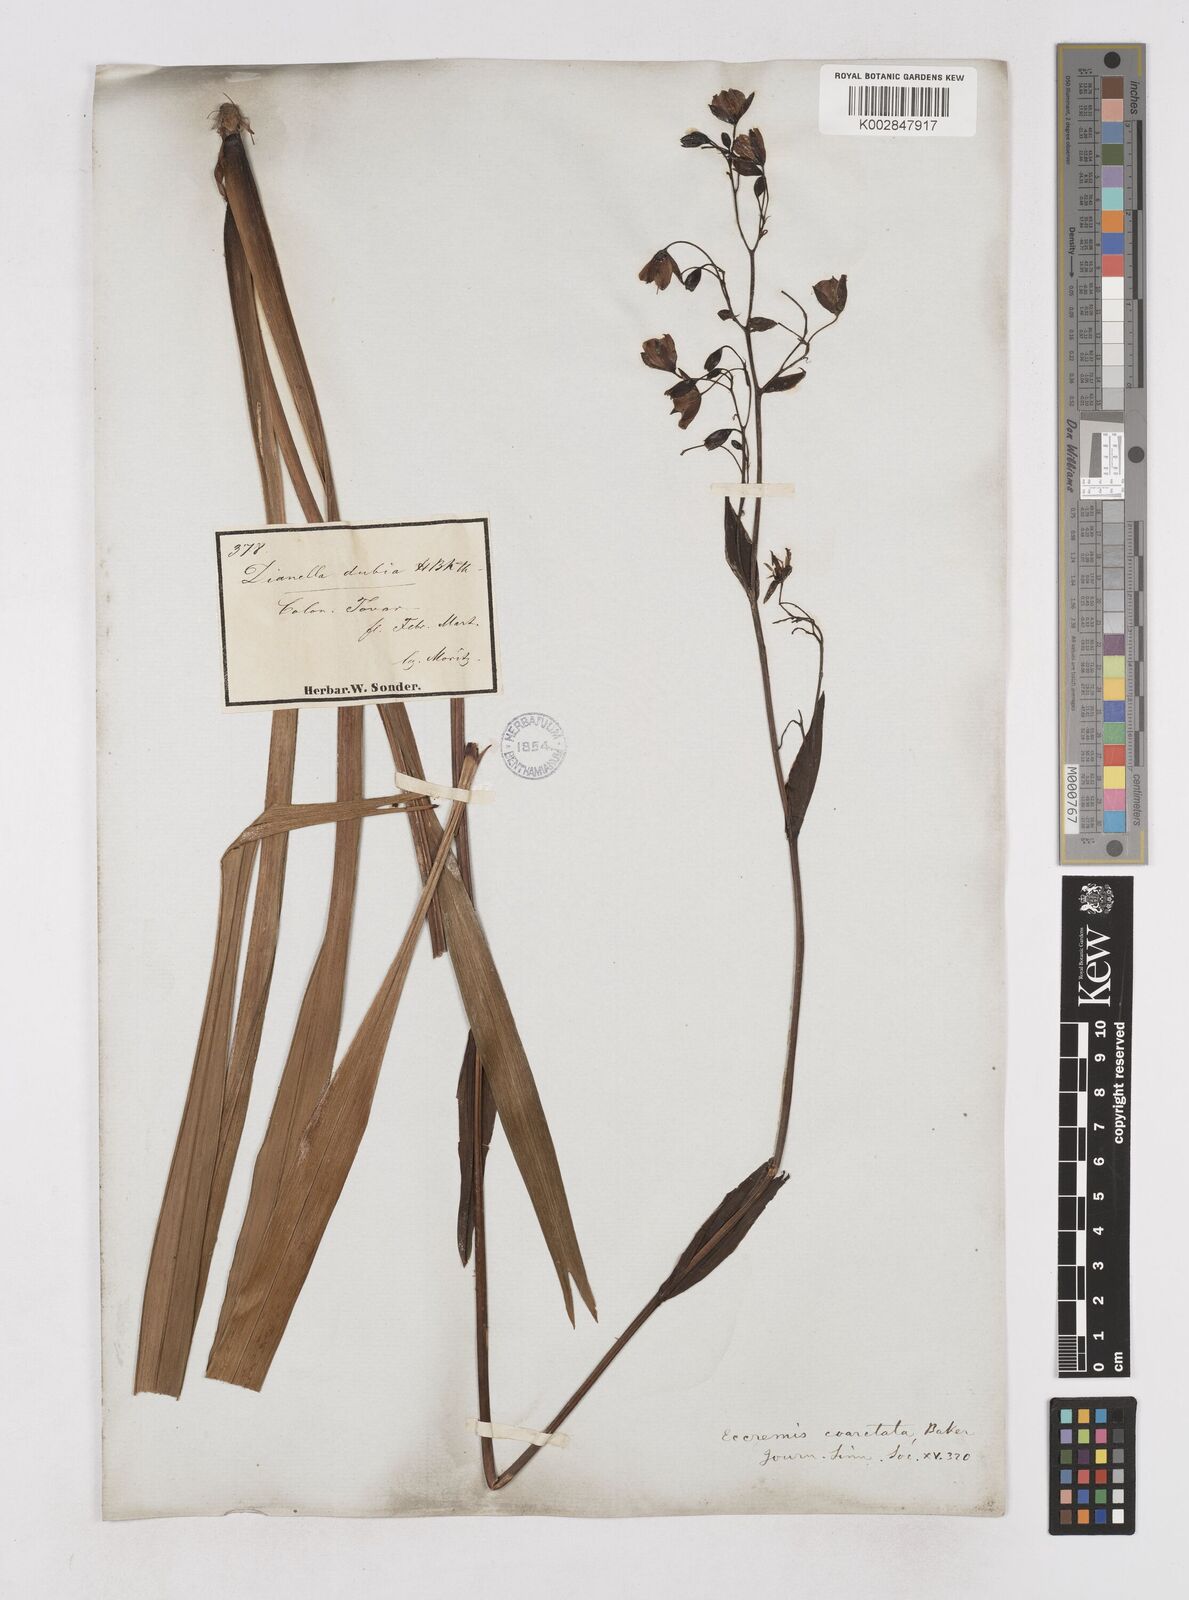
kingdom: Plantae
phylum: Tracheophyta
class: Liliopsida
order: Asparagales
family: Asphodelaceae
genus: Excremis
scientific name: Excremis coarctata
